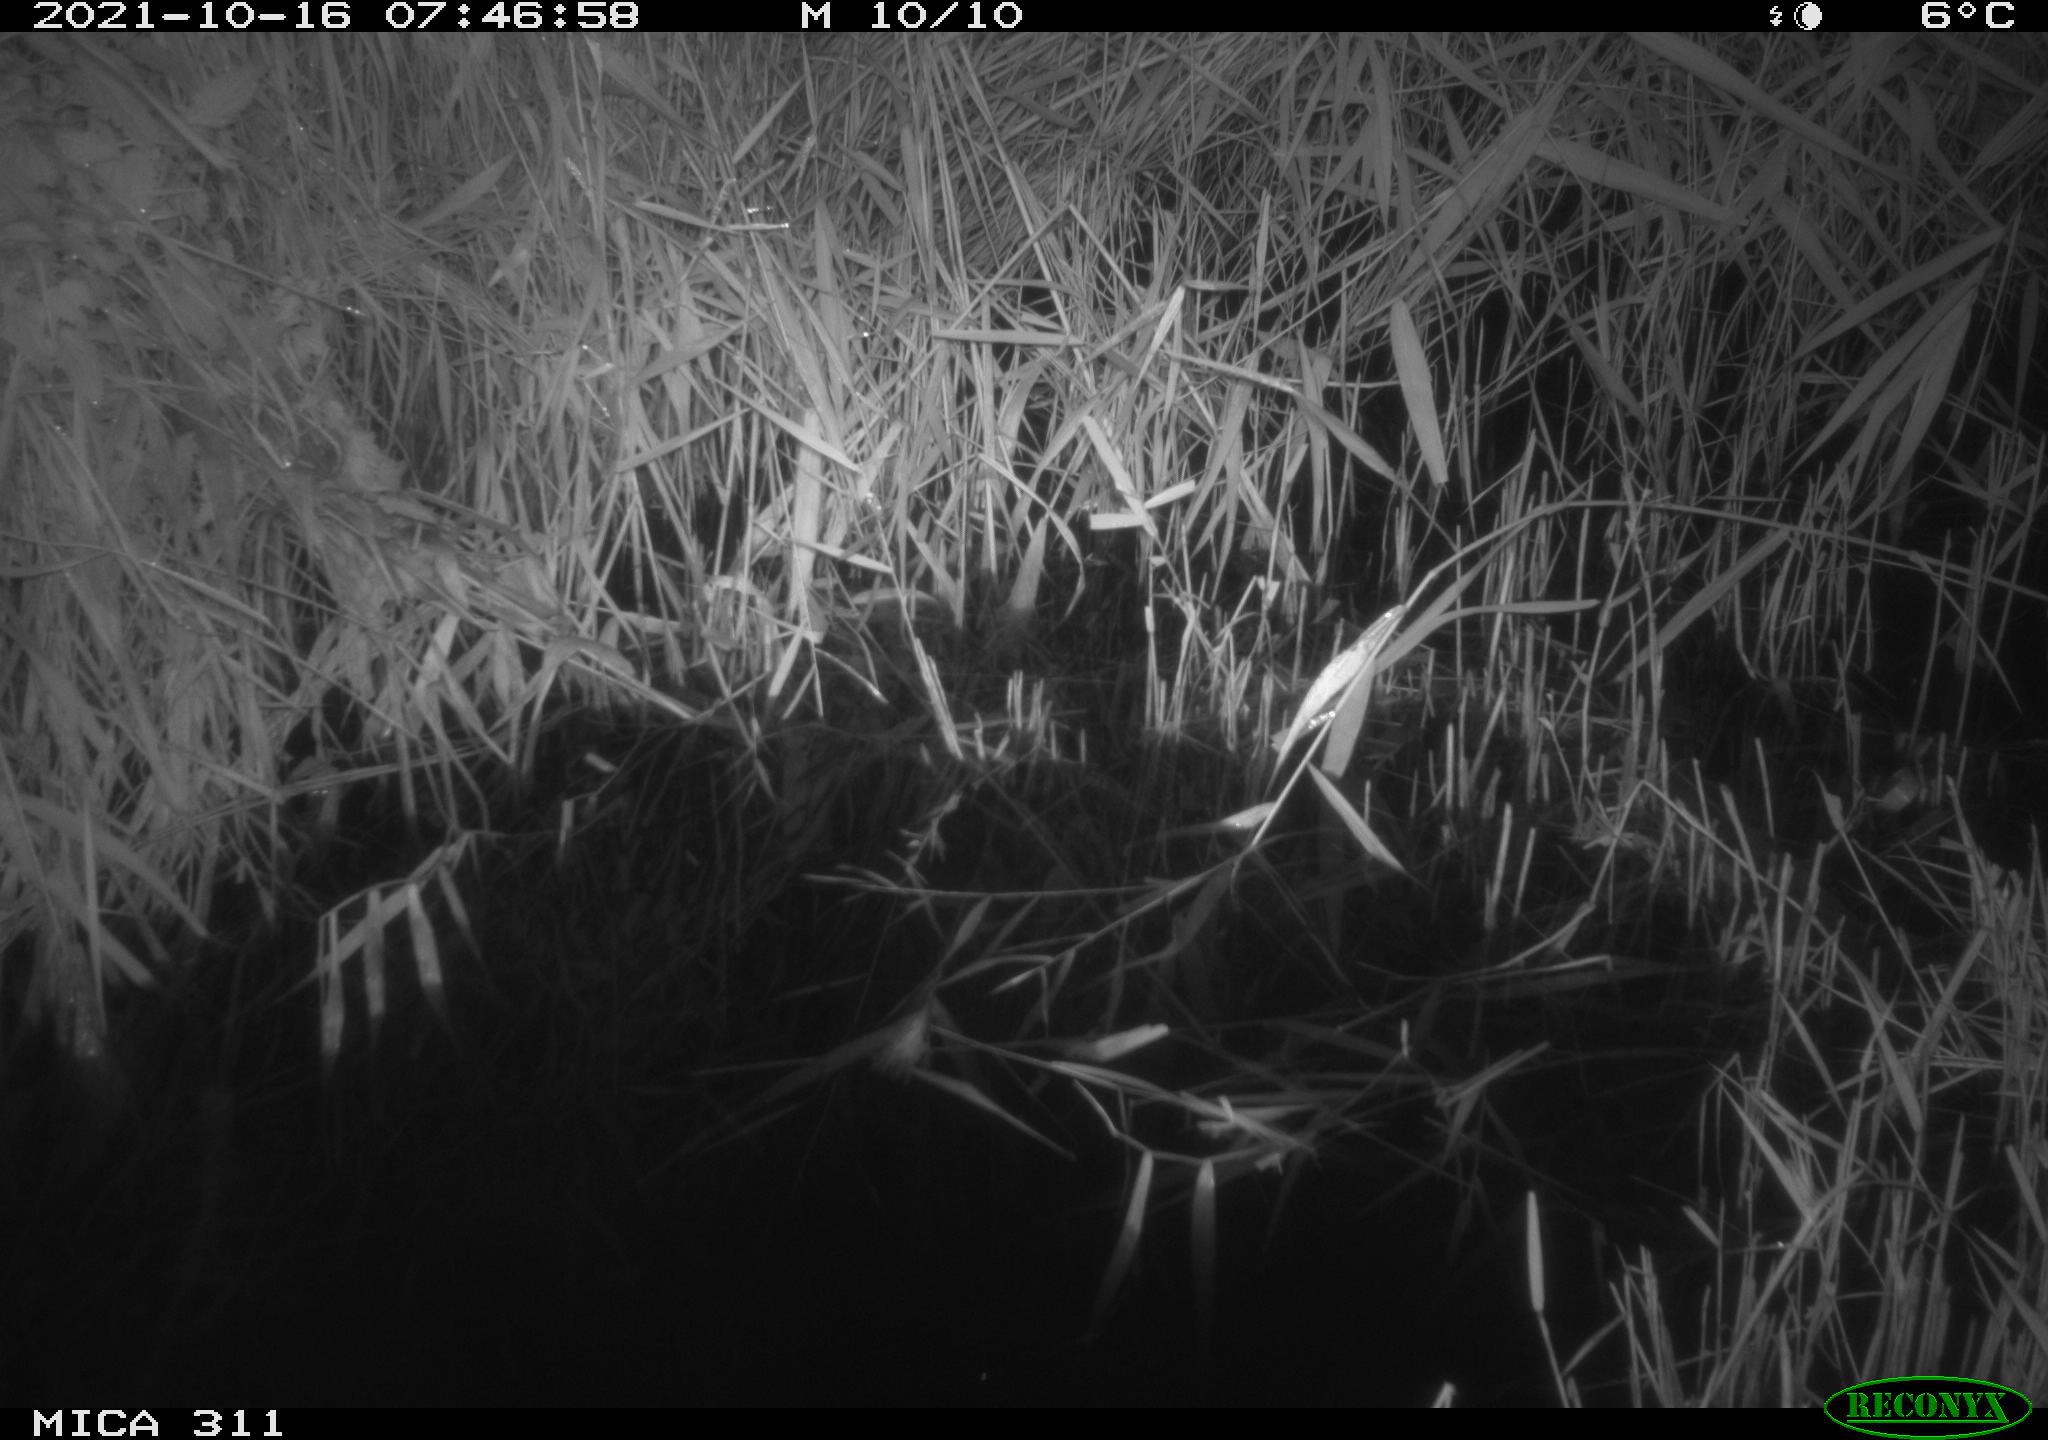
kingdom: Animalia
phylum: Chordata
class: Mammalia
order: Rodentia
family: Muridae
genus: Rattus
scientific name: Rattus norvegicus
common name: Brown rat
